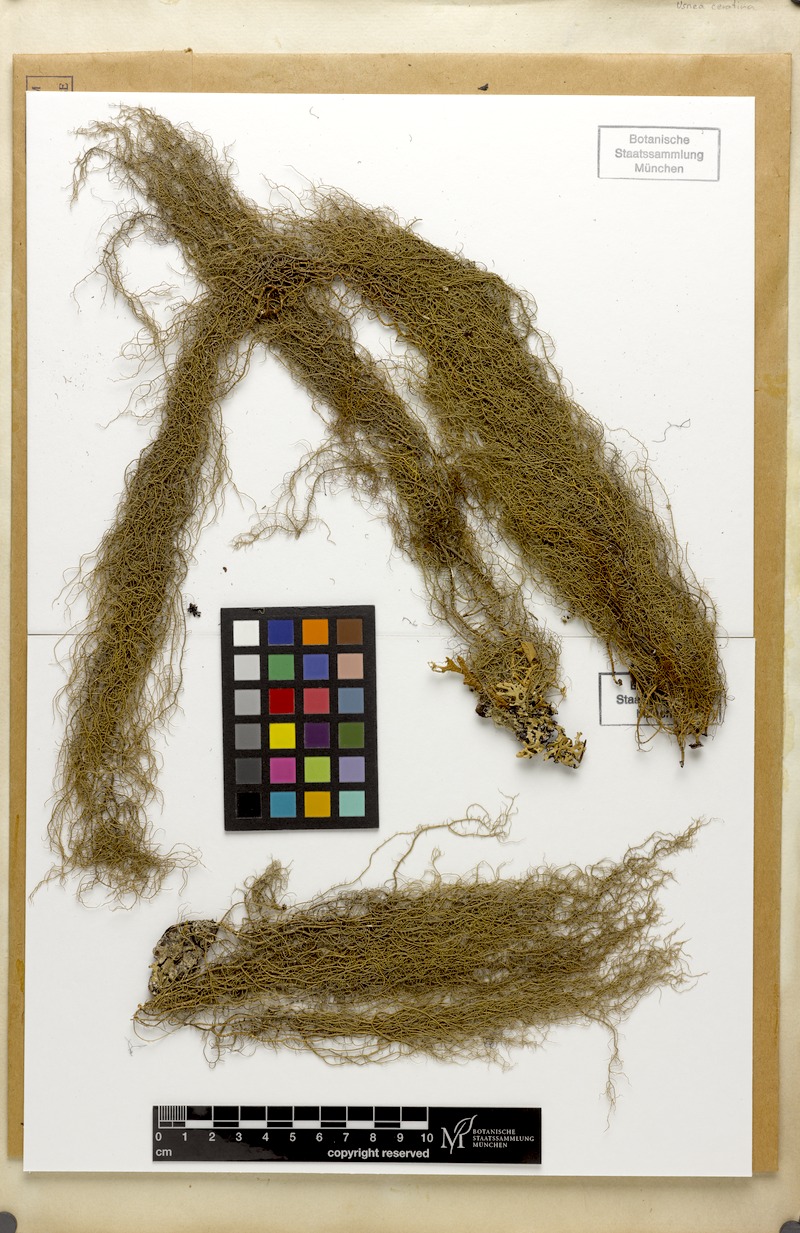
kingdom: Fungi
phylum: Ascomycota
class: Lecanoromycetes
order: Lecanorales
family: Parmeliaceae
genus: Usnea
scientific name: Usnea ceratina
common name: Warty beard lichen
